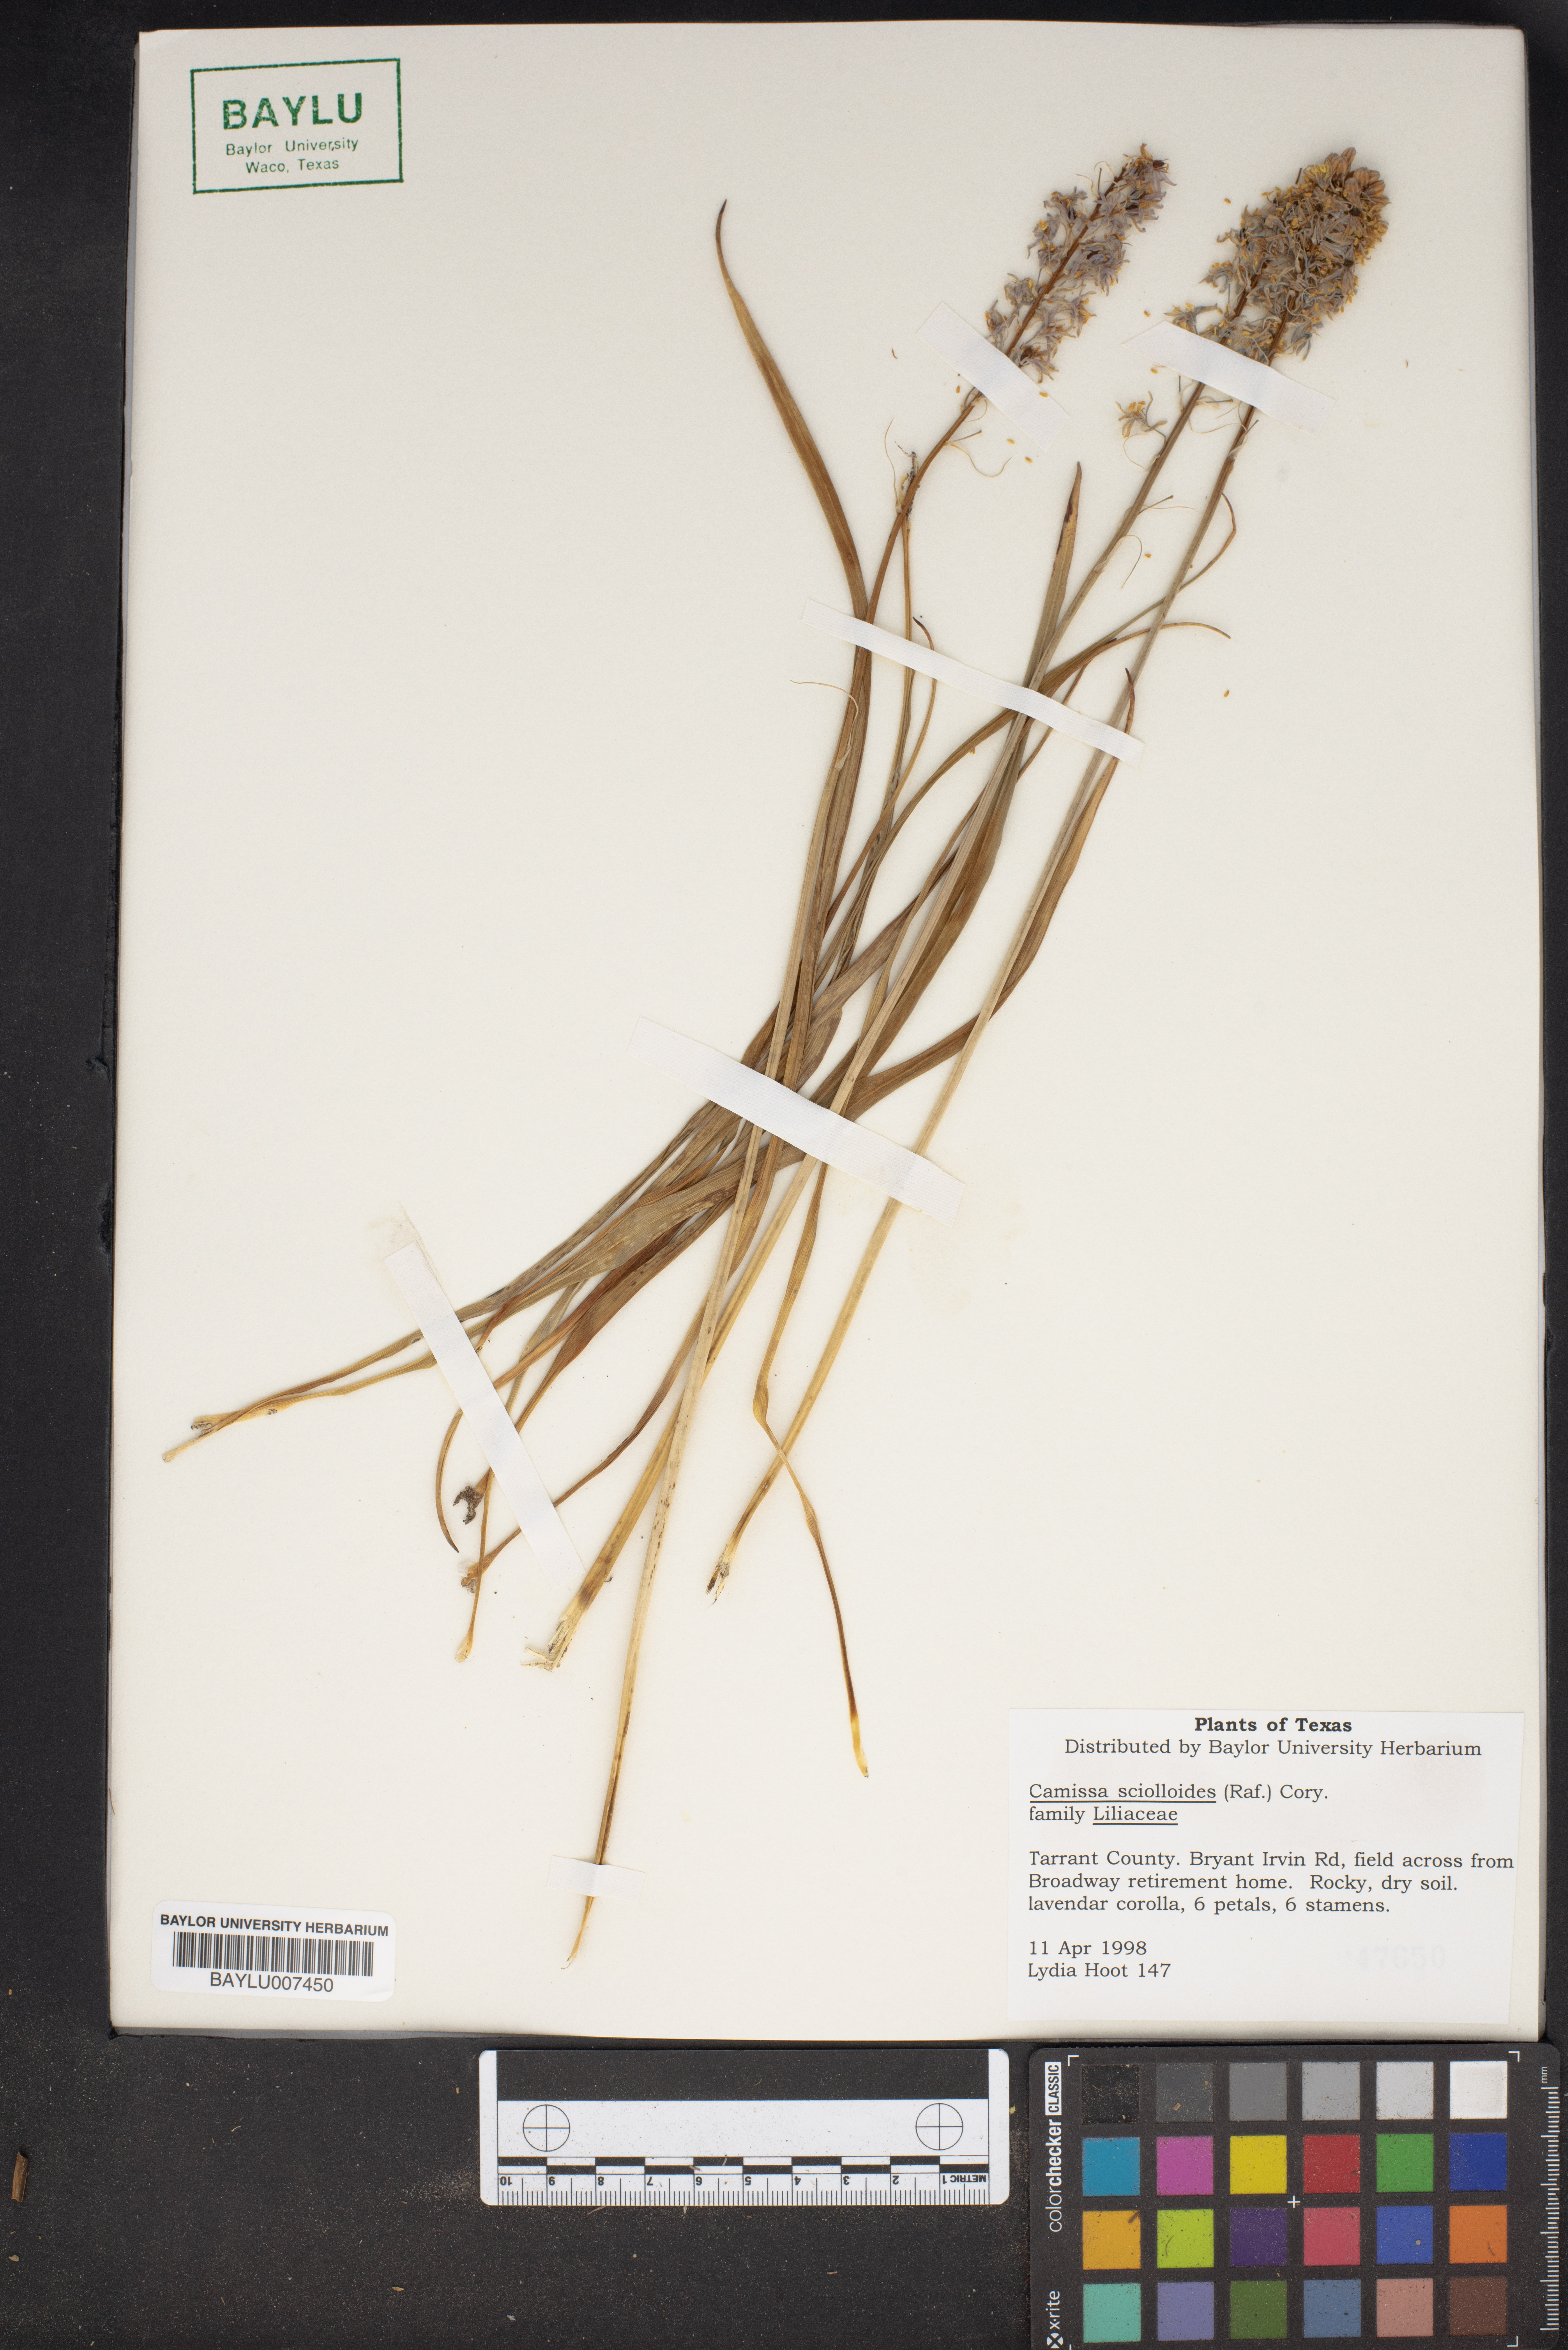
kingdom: Plantae
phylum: Tracheophyta
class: Liliopsida
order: Asparagales
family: Asparagaceae
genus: Camassia
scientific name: Camassia scilloides
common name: Wild hyacinth
